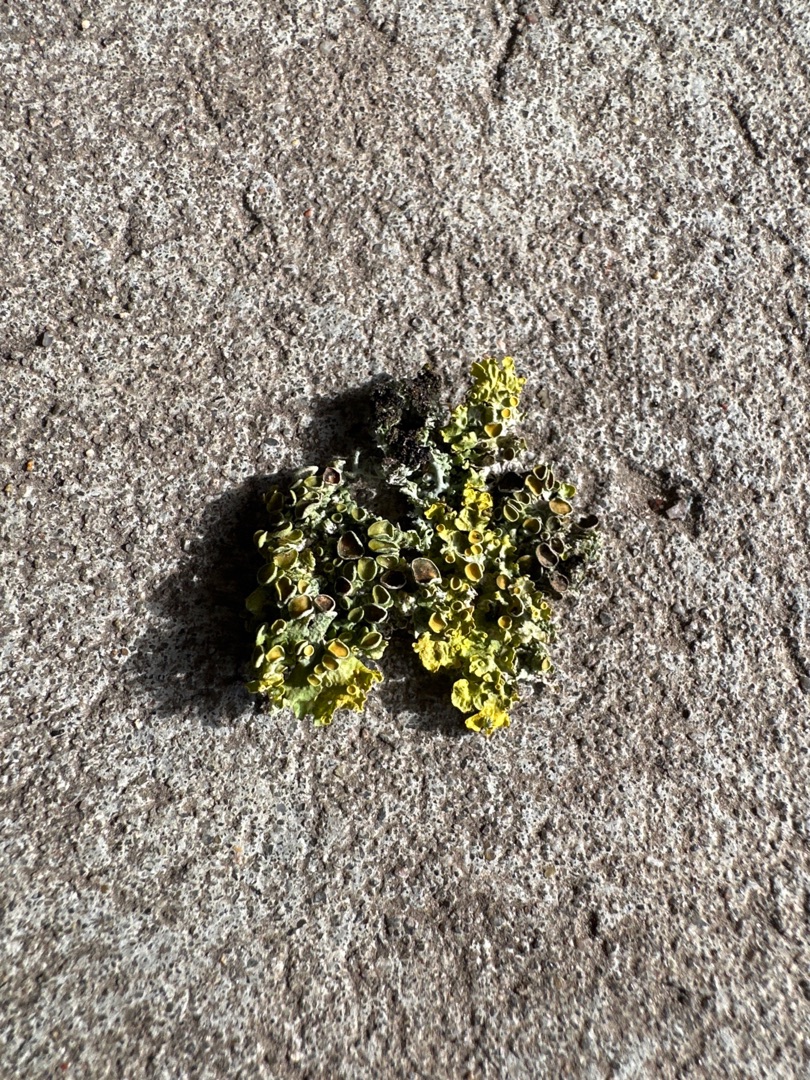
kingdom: Fungi
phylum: Ascomycota
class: Lecanoromycetes
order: Teloschistales
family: Teloschistaceae
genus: Xanthoria
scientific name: Xanthoria parietina
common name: Almindelig væggelav
